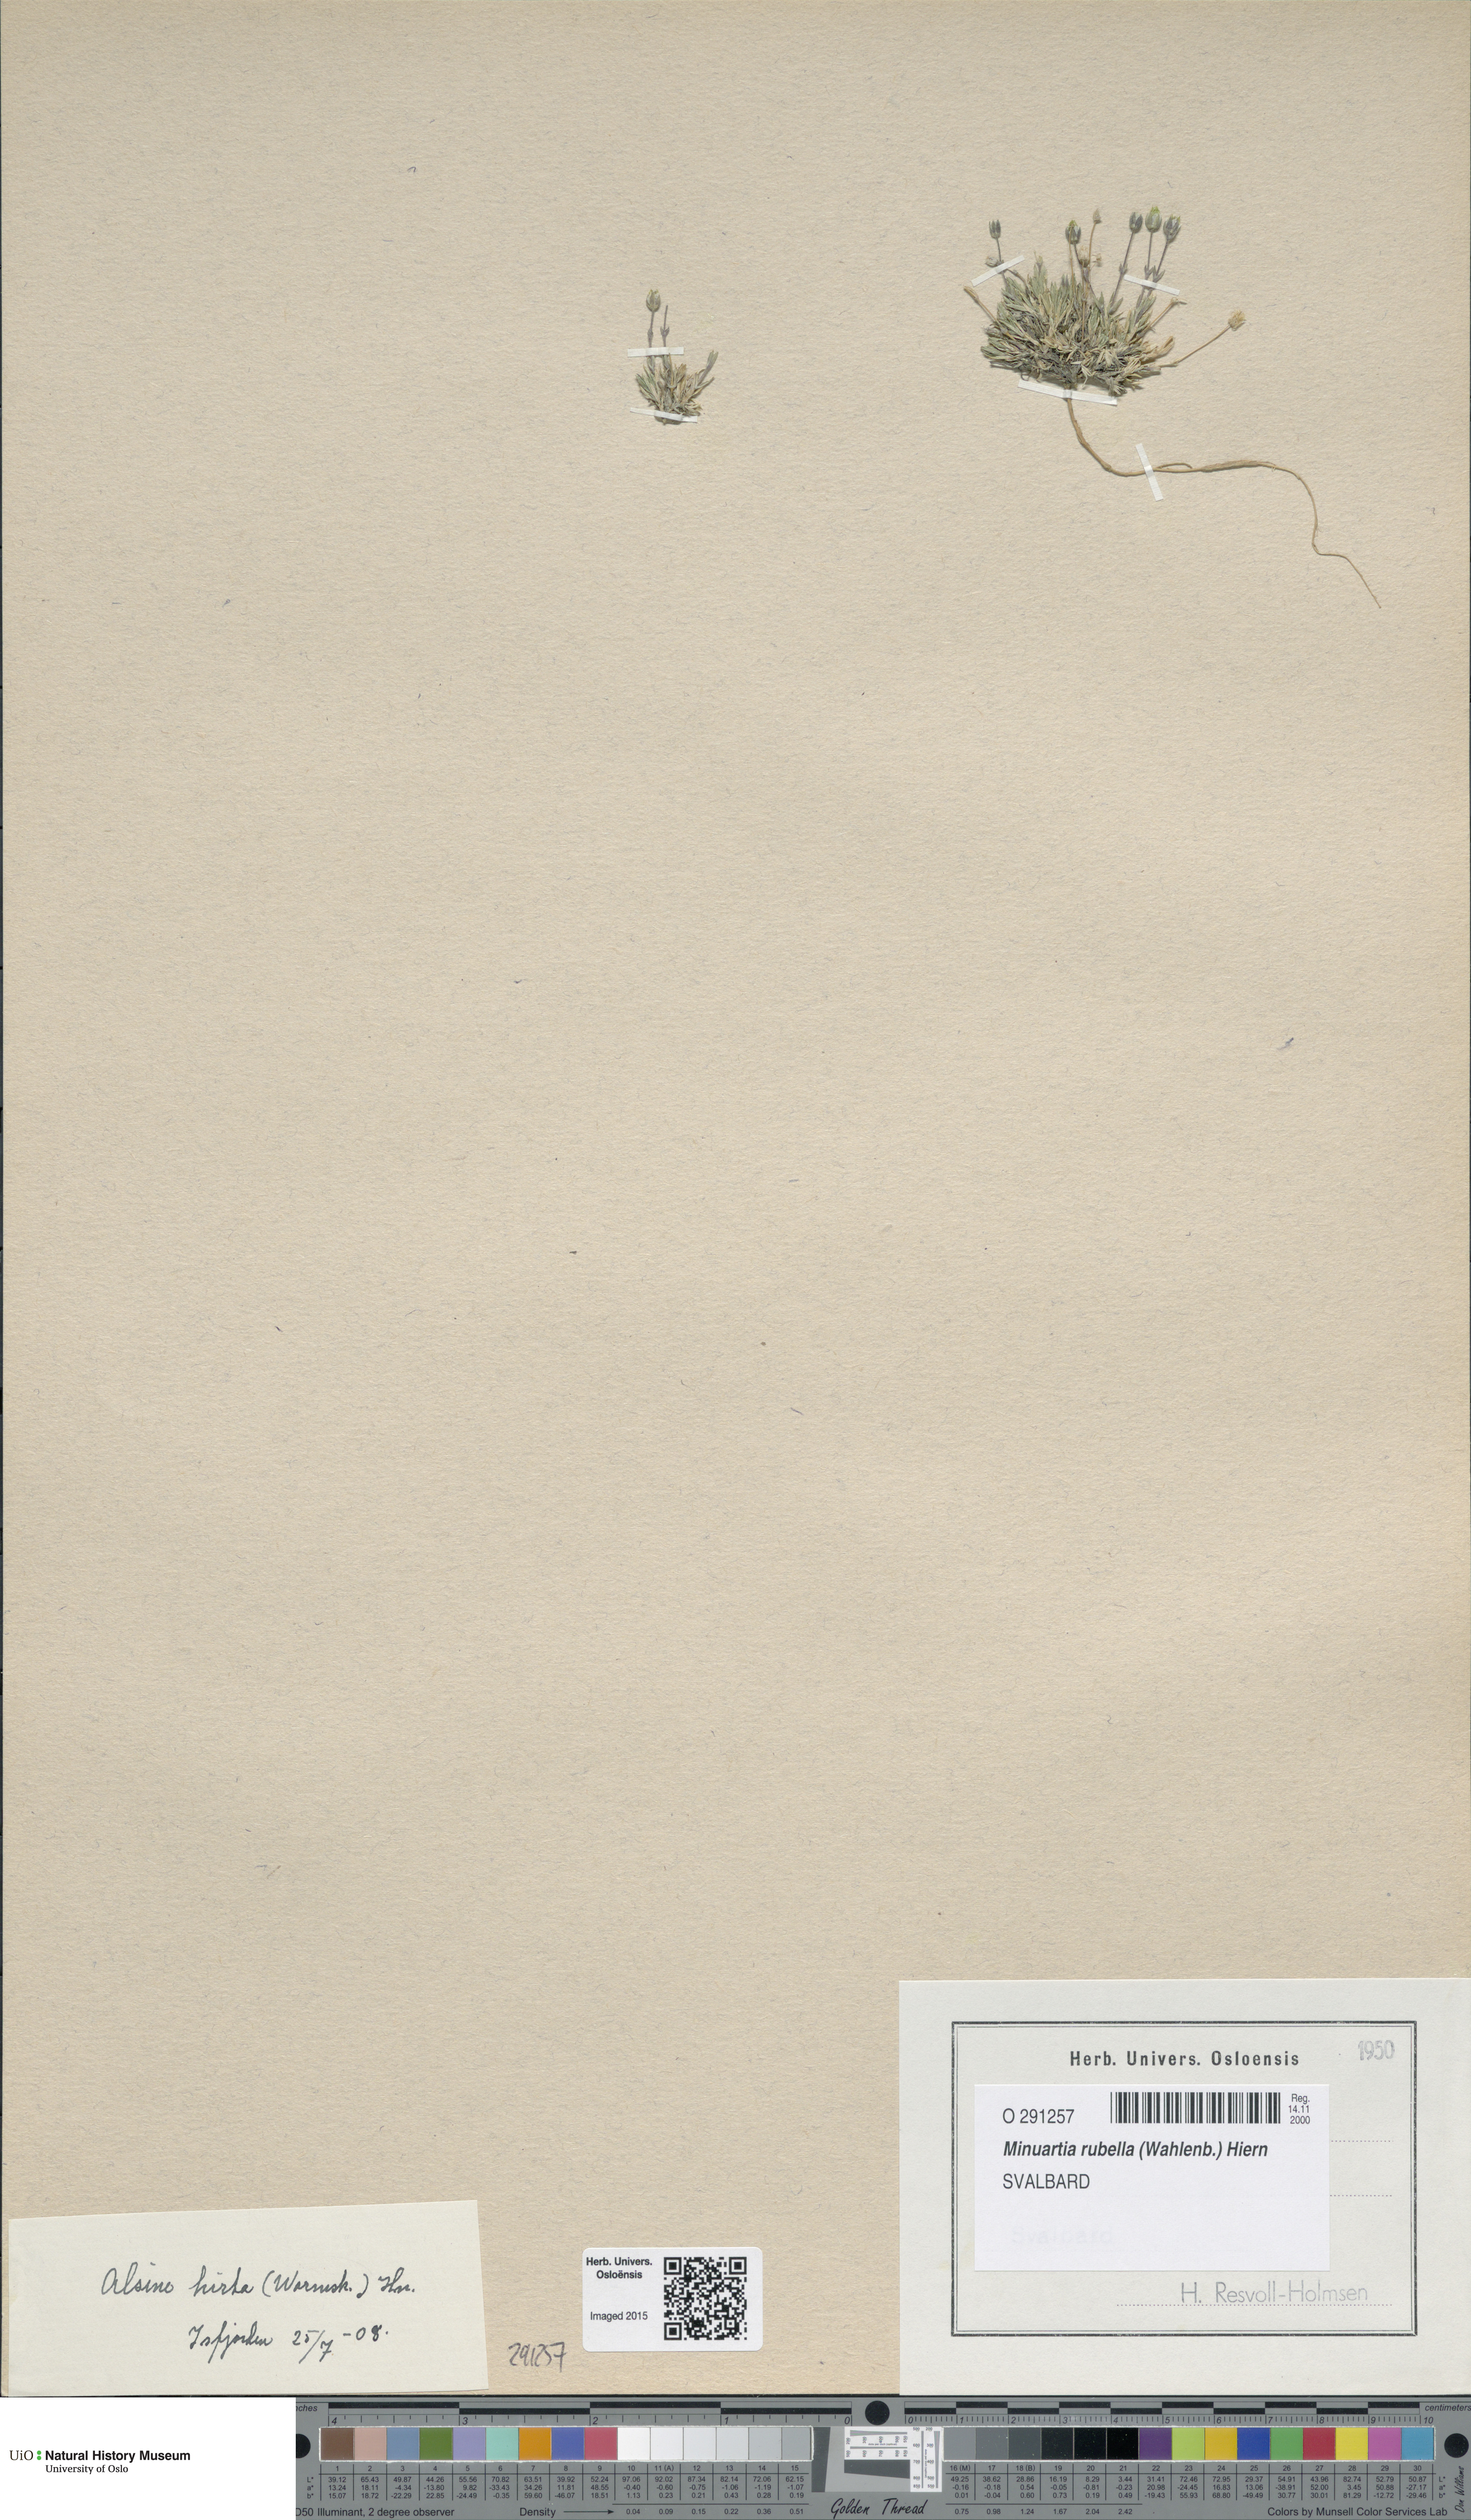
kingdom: Plantae
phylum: Tracheophyta
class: Magnoliopsida
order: Caryophyllales
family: Caryophyllaceae
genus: Sabulina
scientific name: Sabulina rubella
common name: Beautiful sandwort
